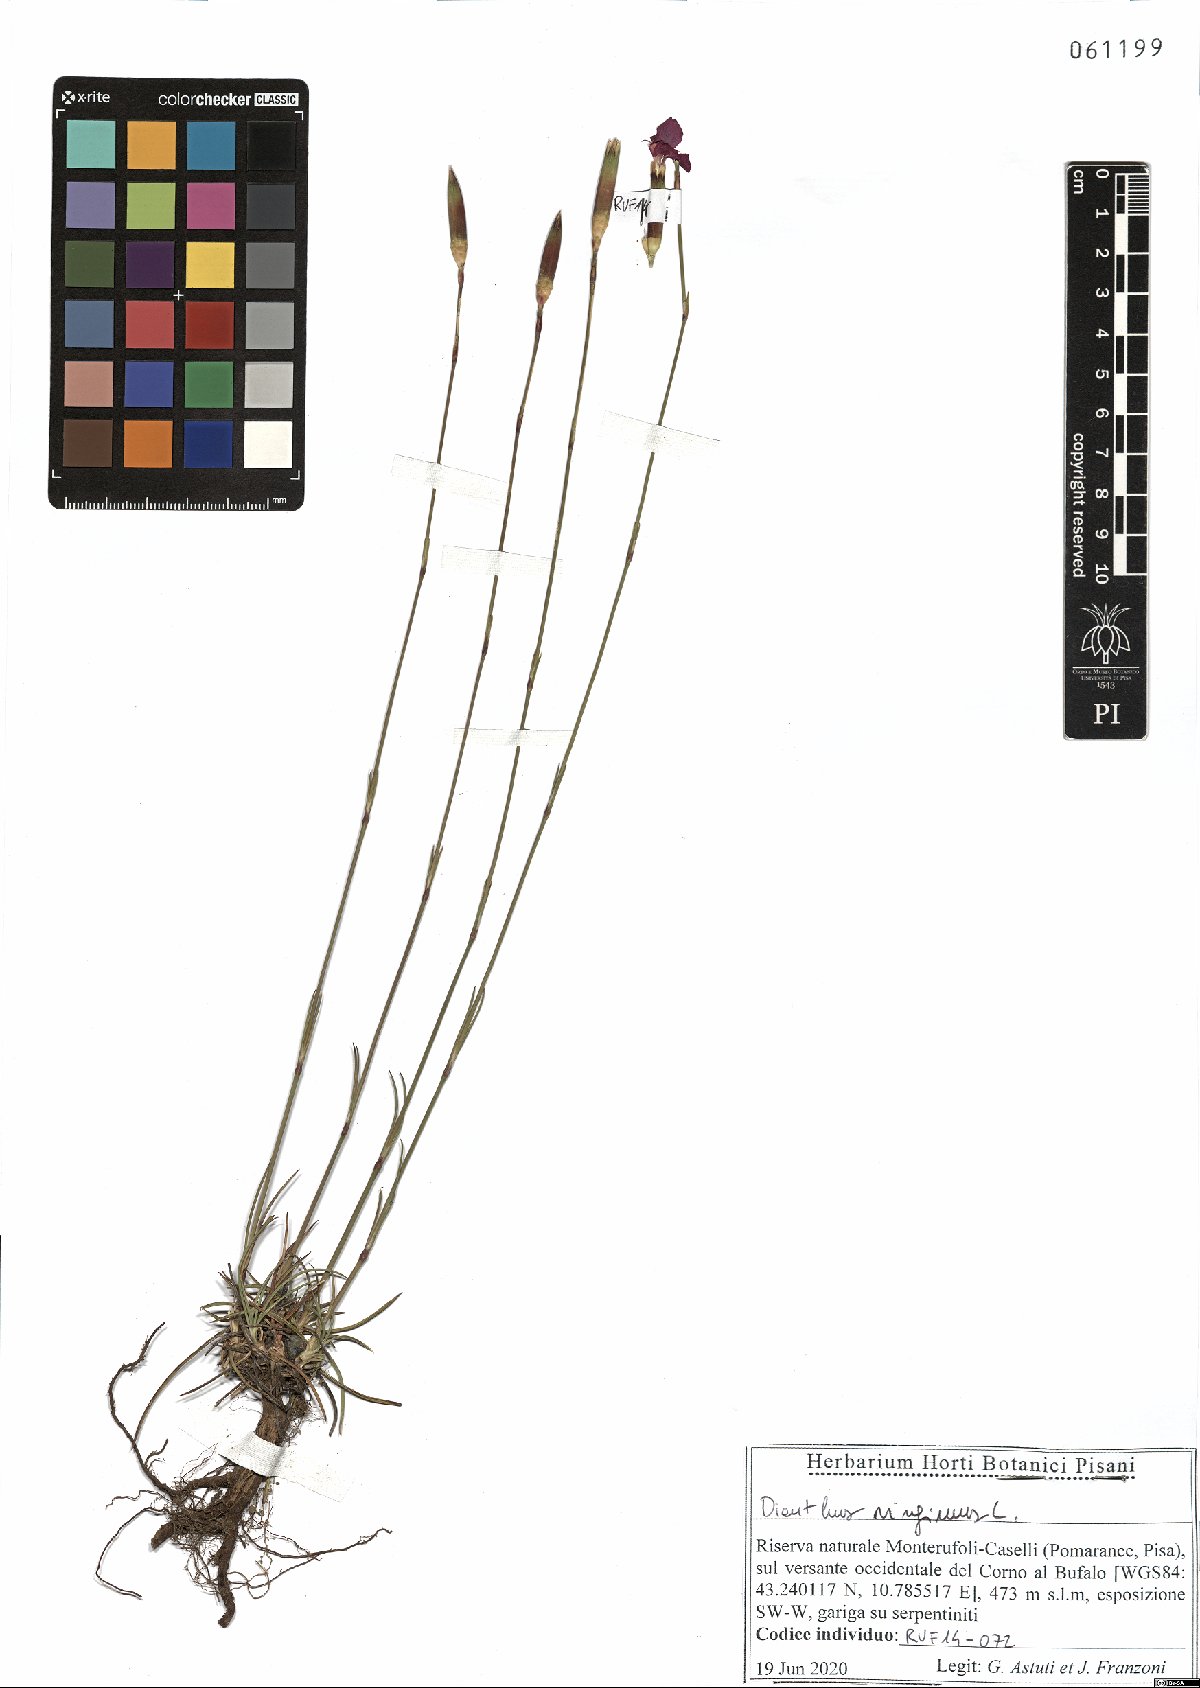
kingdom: Plantae
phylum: Tracheophyta
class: Magnoliopsida
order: Caryophyllales
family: Caryophyllaceae
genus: Dianthus
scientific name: Dianthus virgineus
